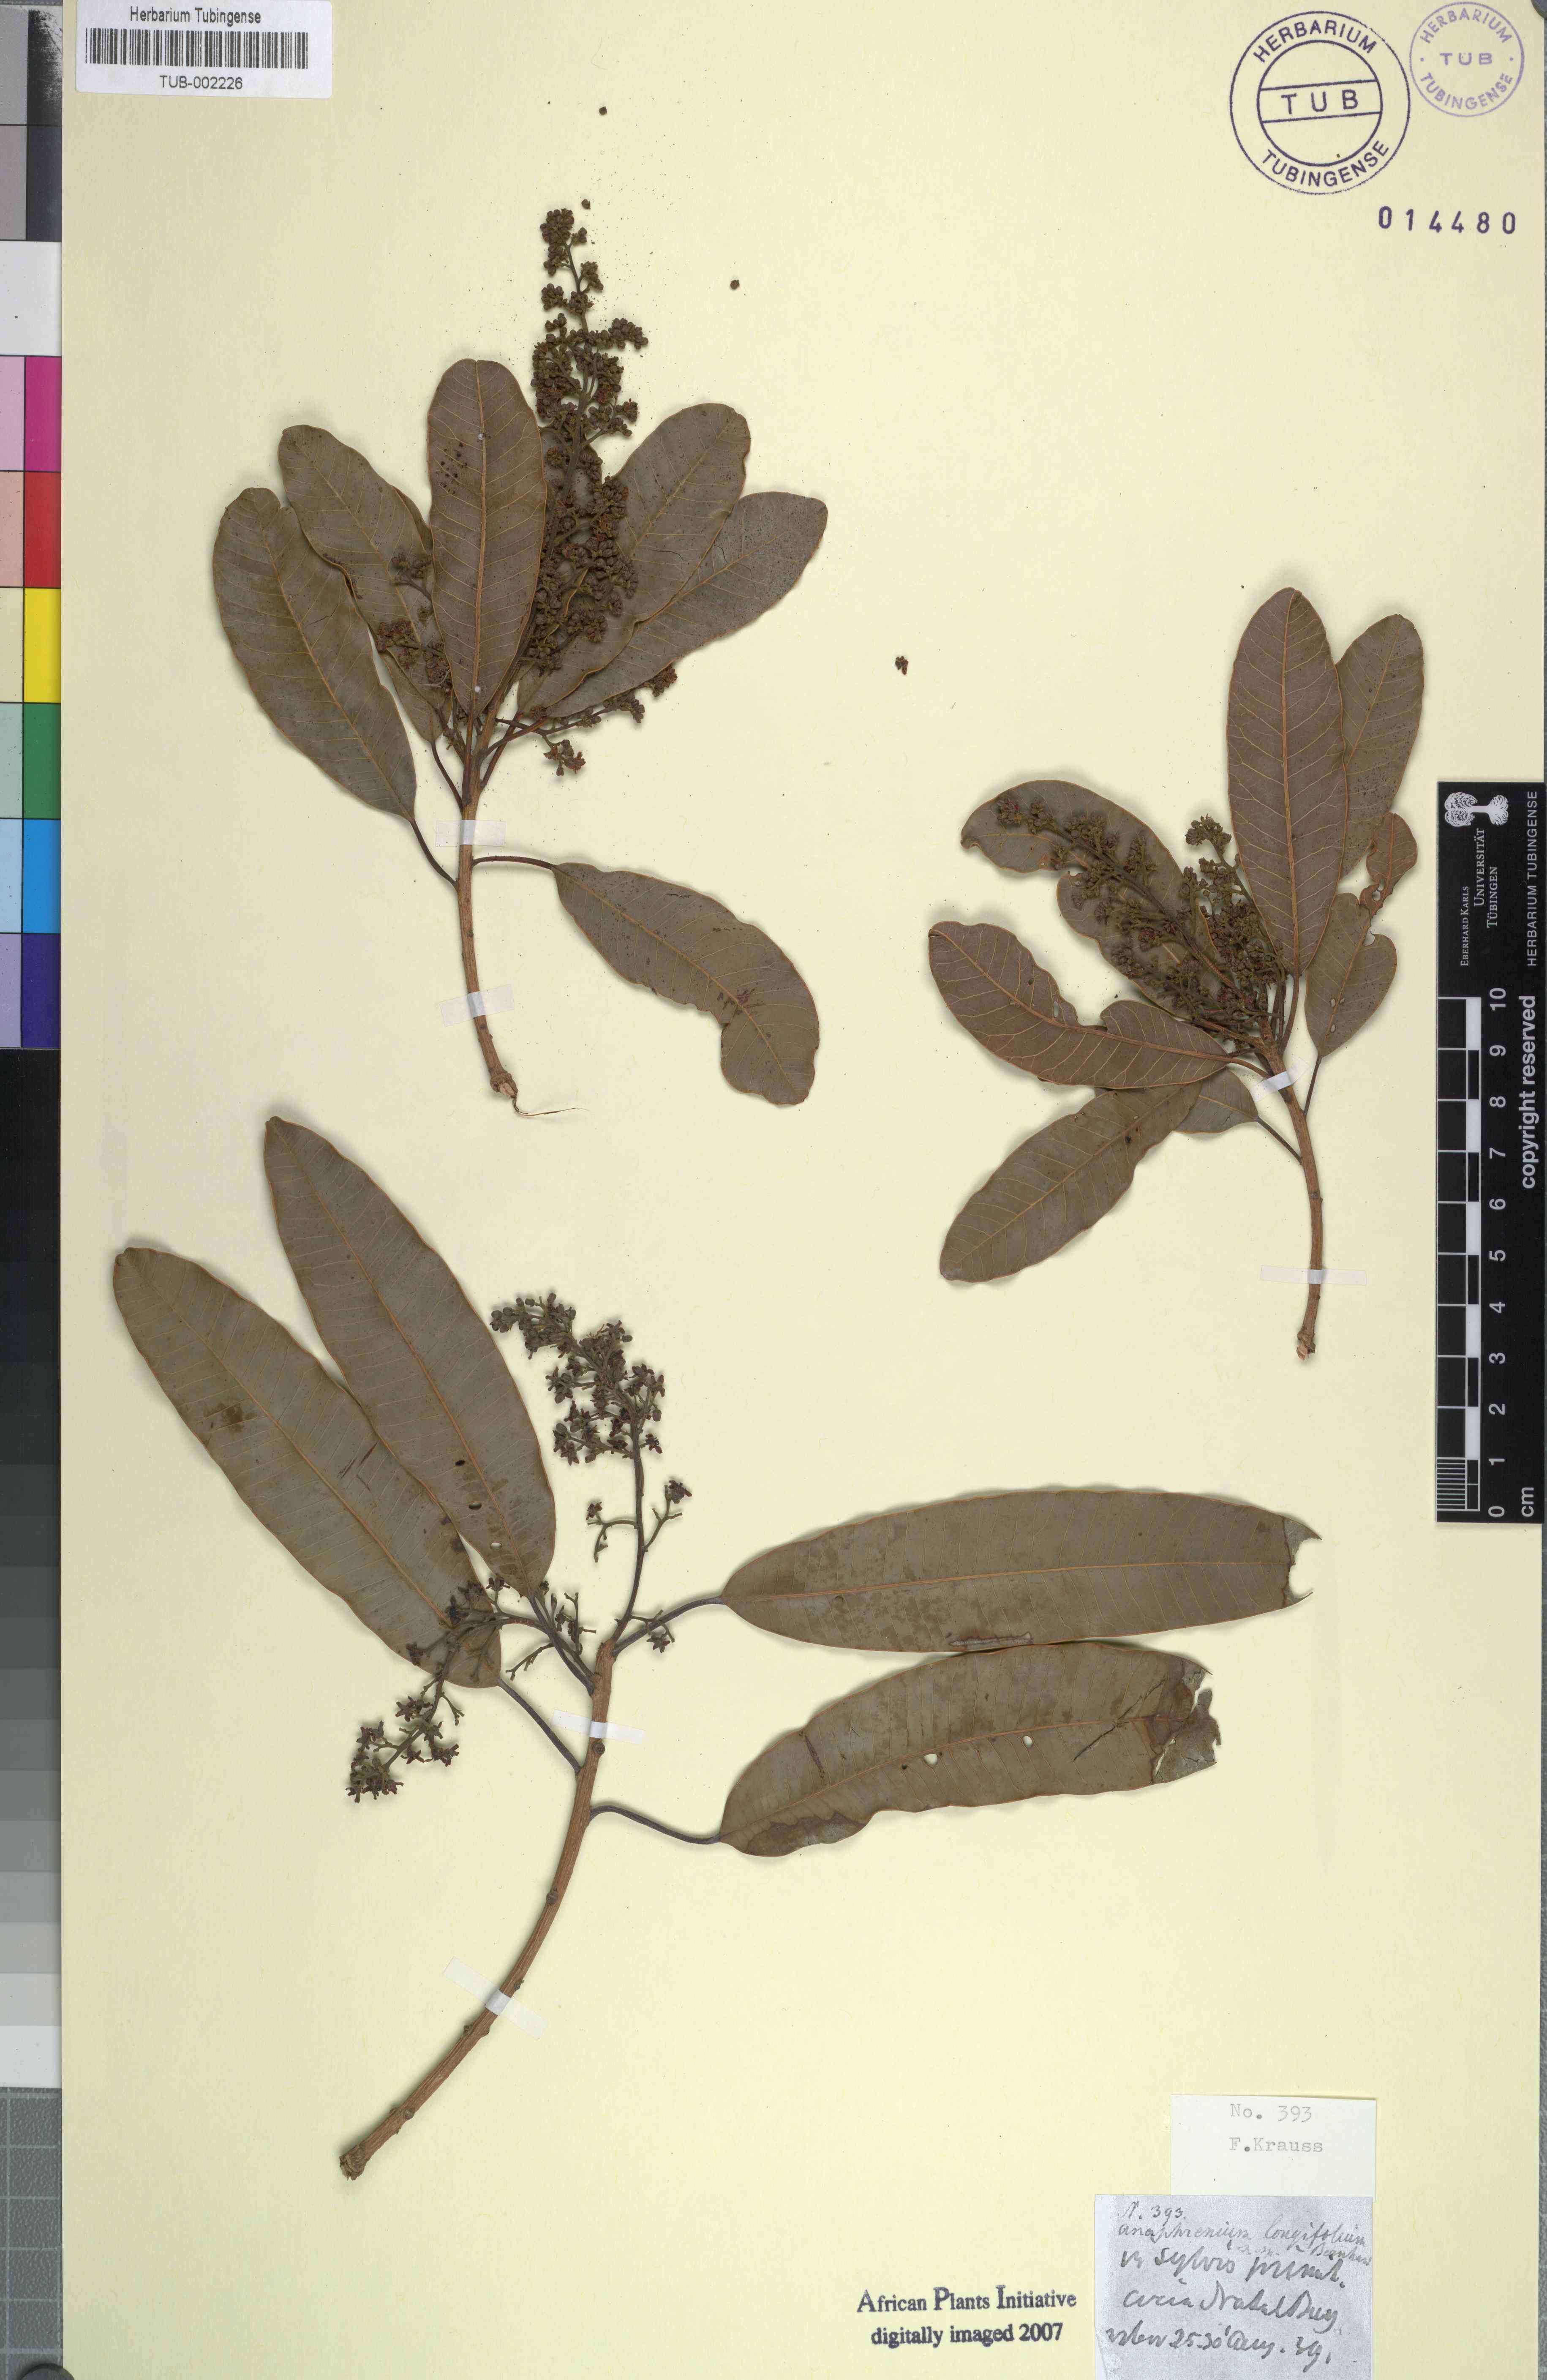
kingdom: Plantae
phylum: Tracheophyta
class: Magnoliopsida
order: Sapindales
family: Anacardiaceae
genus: Protorhus
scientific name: Protorhus longifolia
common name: Red-beech
